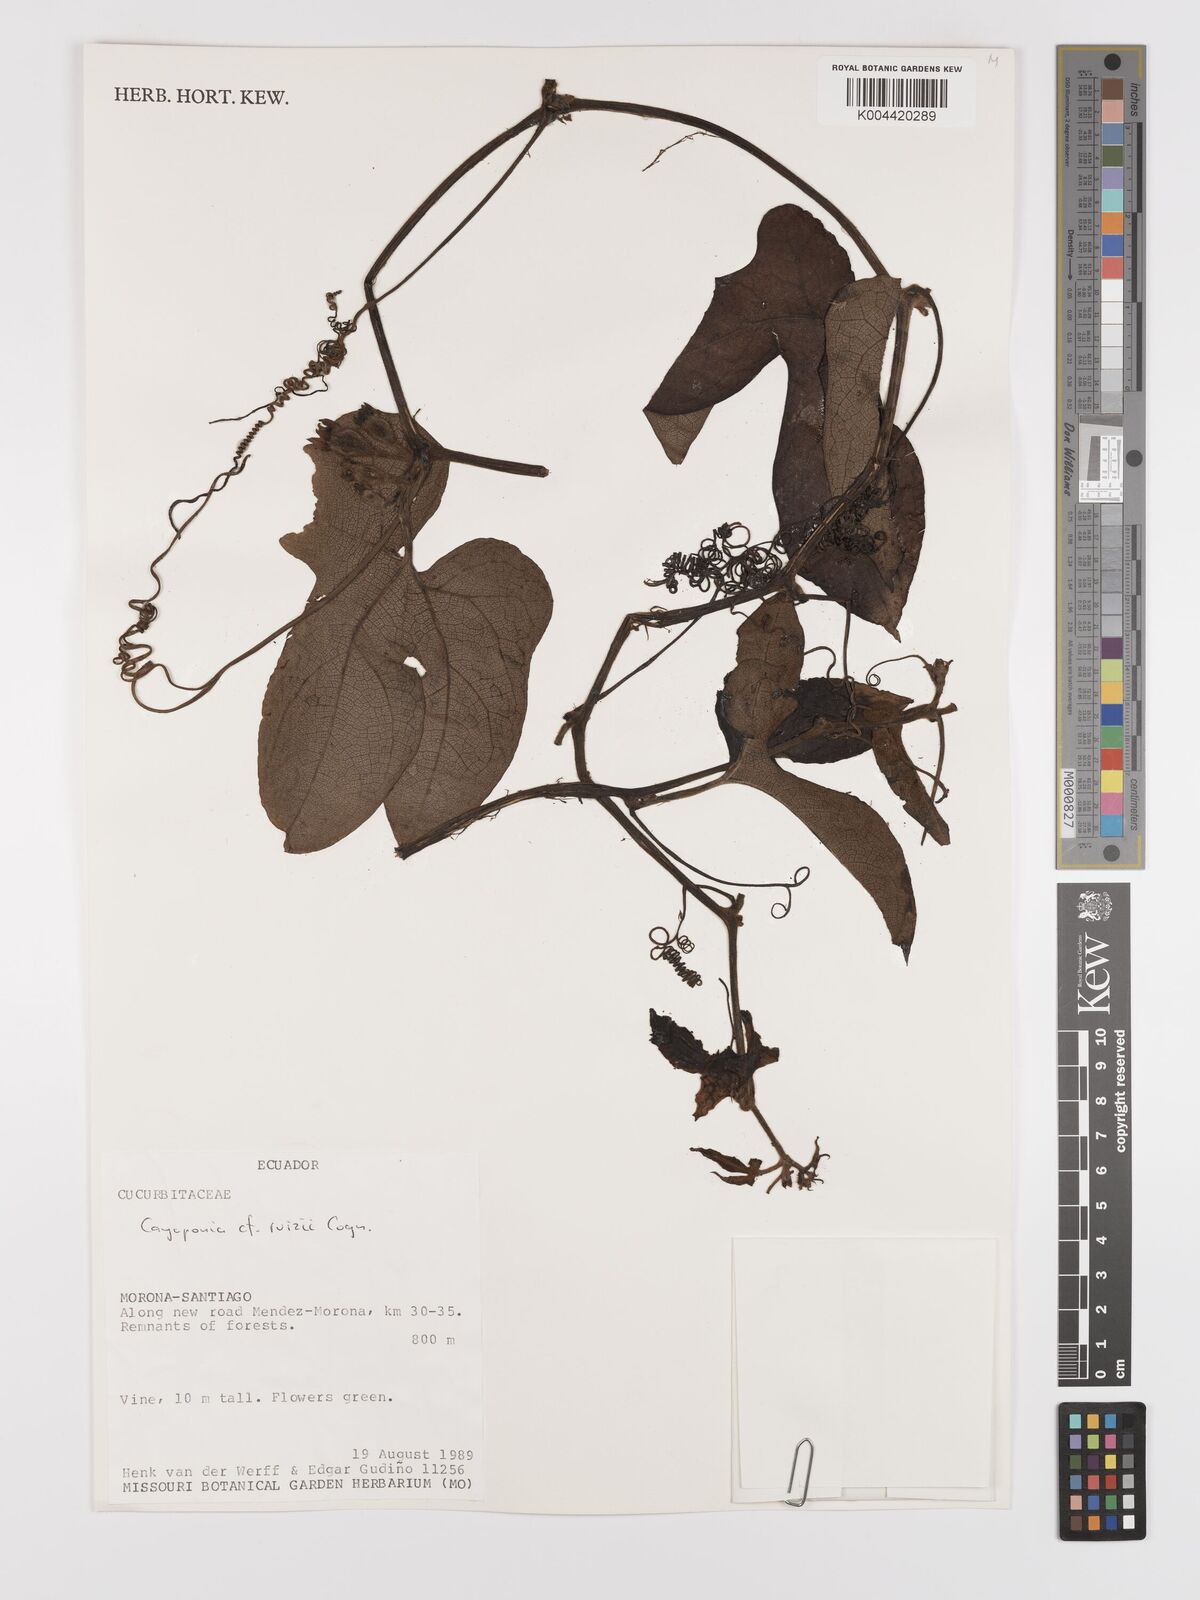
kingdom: Plantae
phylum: Tracheophyta
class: Magnoliopsida
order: Cucurbitales
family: Cucurbitaceae
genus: Cayaponia
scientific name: Cayaponia ruizii
